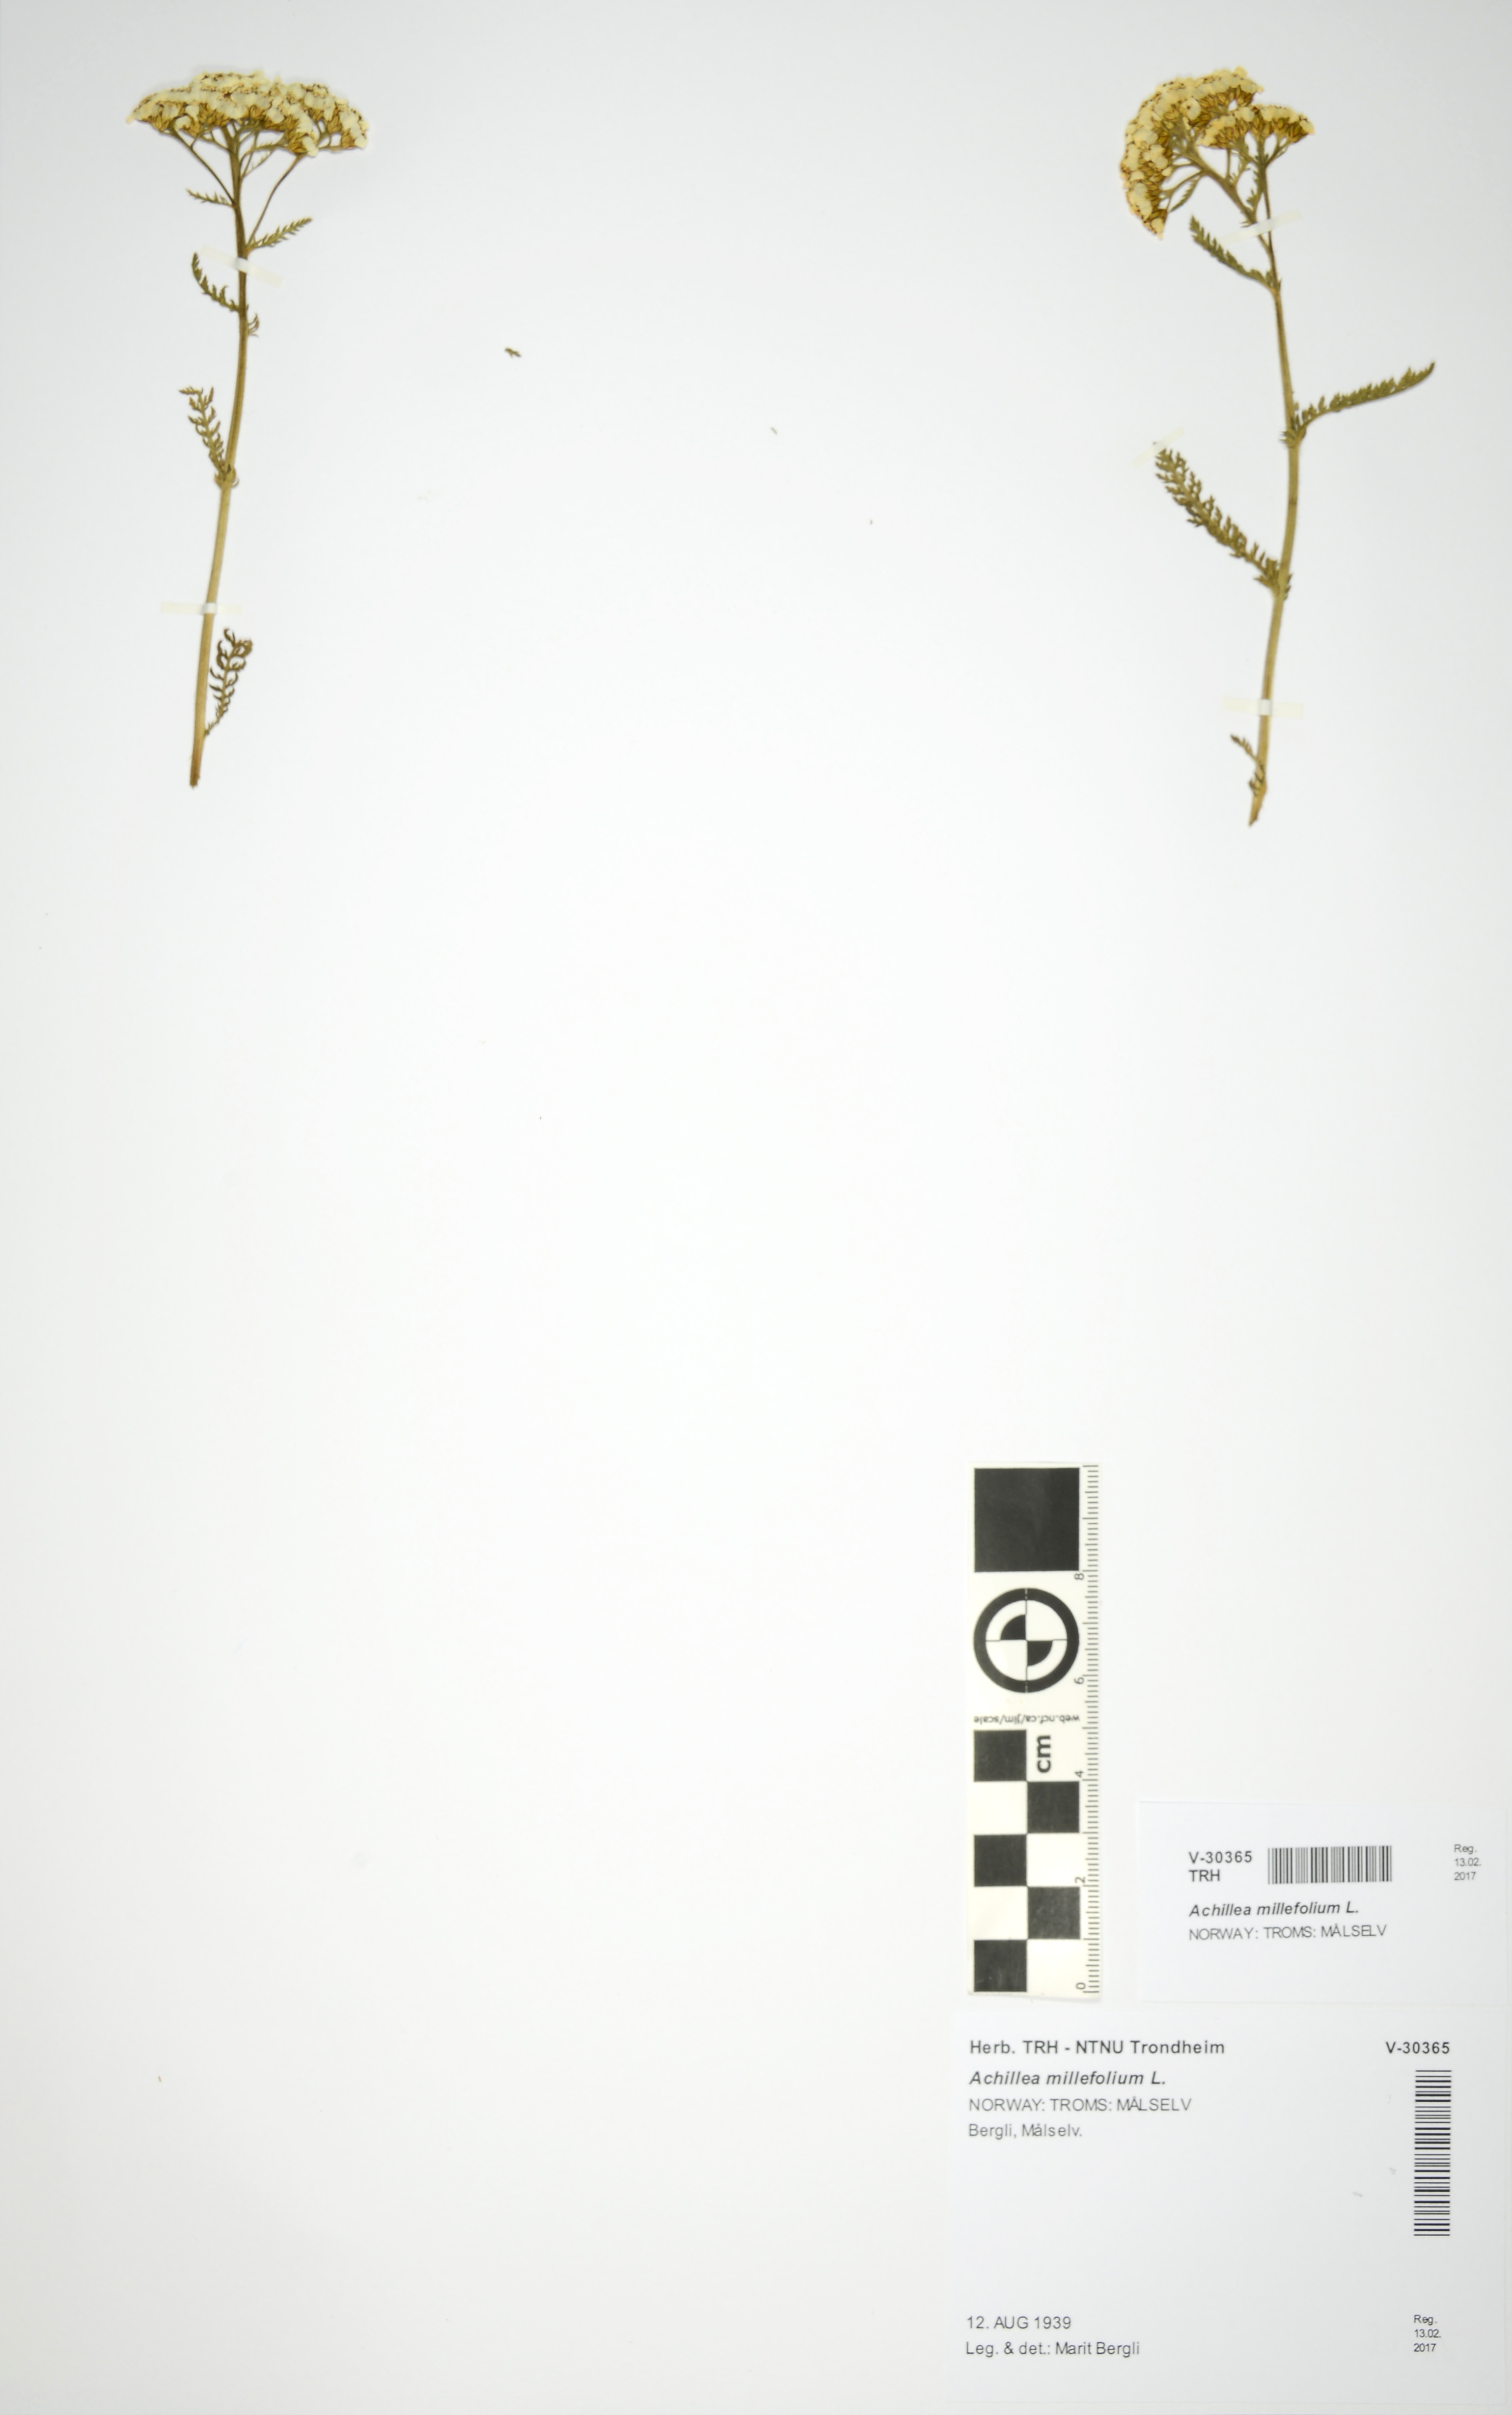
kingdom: Plantae
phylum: Tracheophyta
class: Magnoliopsida
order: Asterales
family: Asteraceae
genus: Achillea
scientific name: Achillea millefolium
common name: Yarrow
